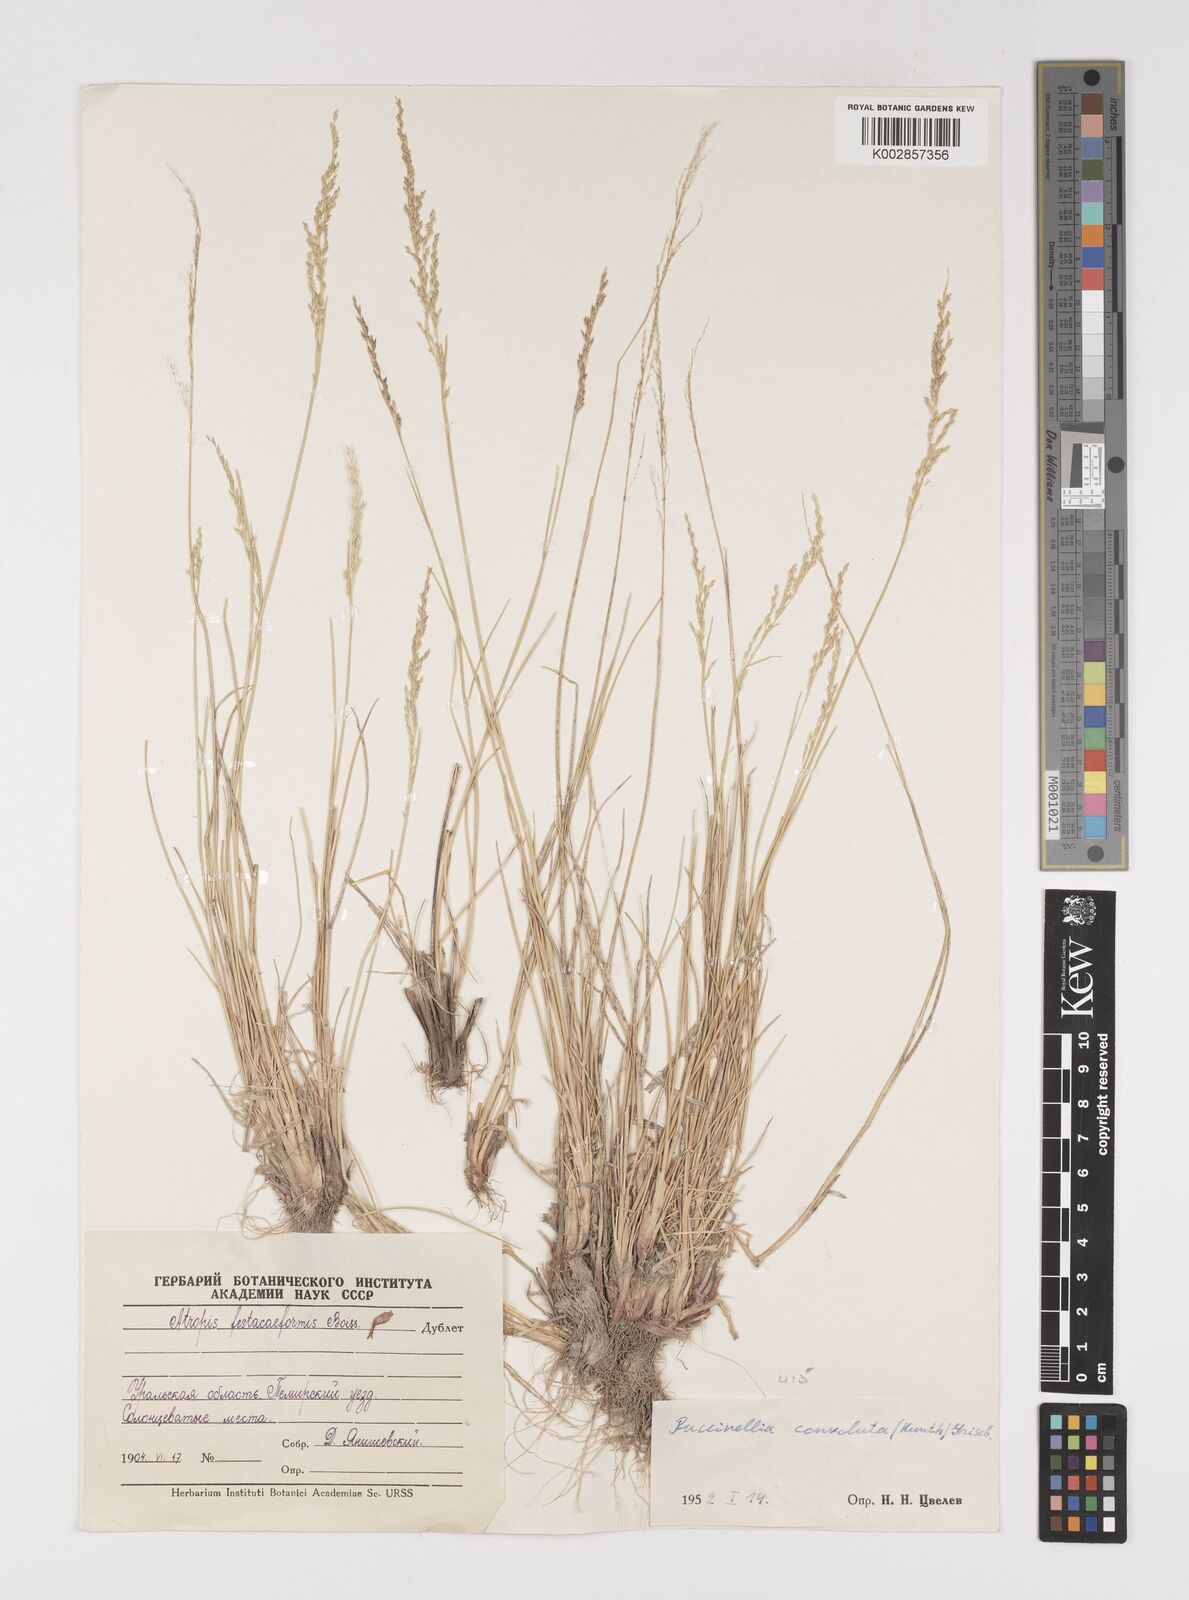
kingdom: Plantae
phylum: Tracheophyta
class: Liliopsida
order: Poales
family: Poaceae
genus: Puccinellia
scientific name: Puccinellia gigantea
